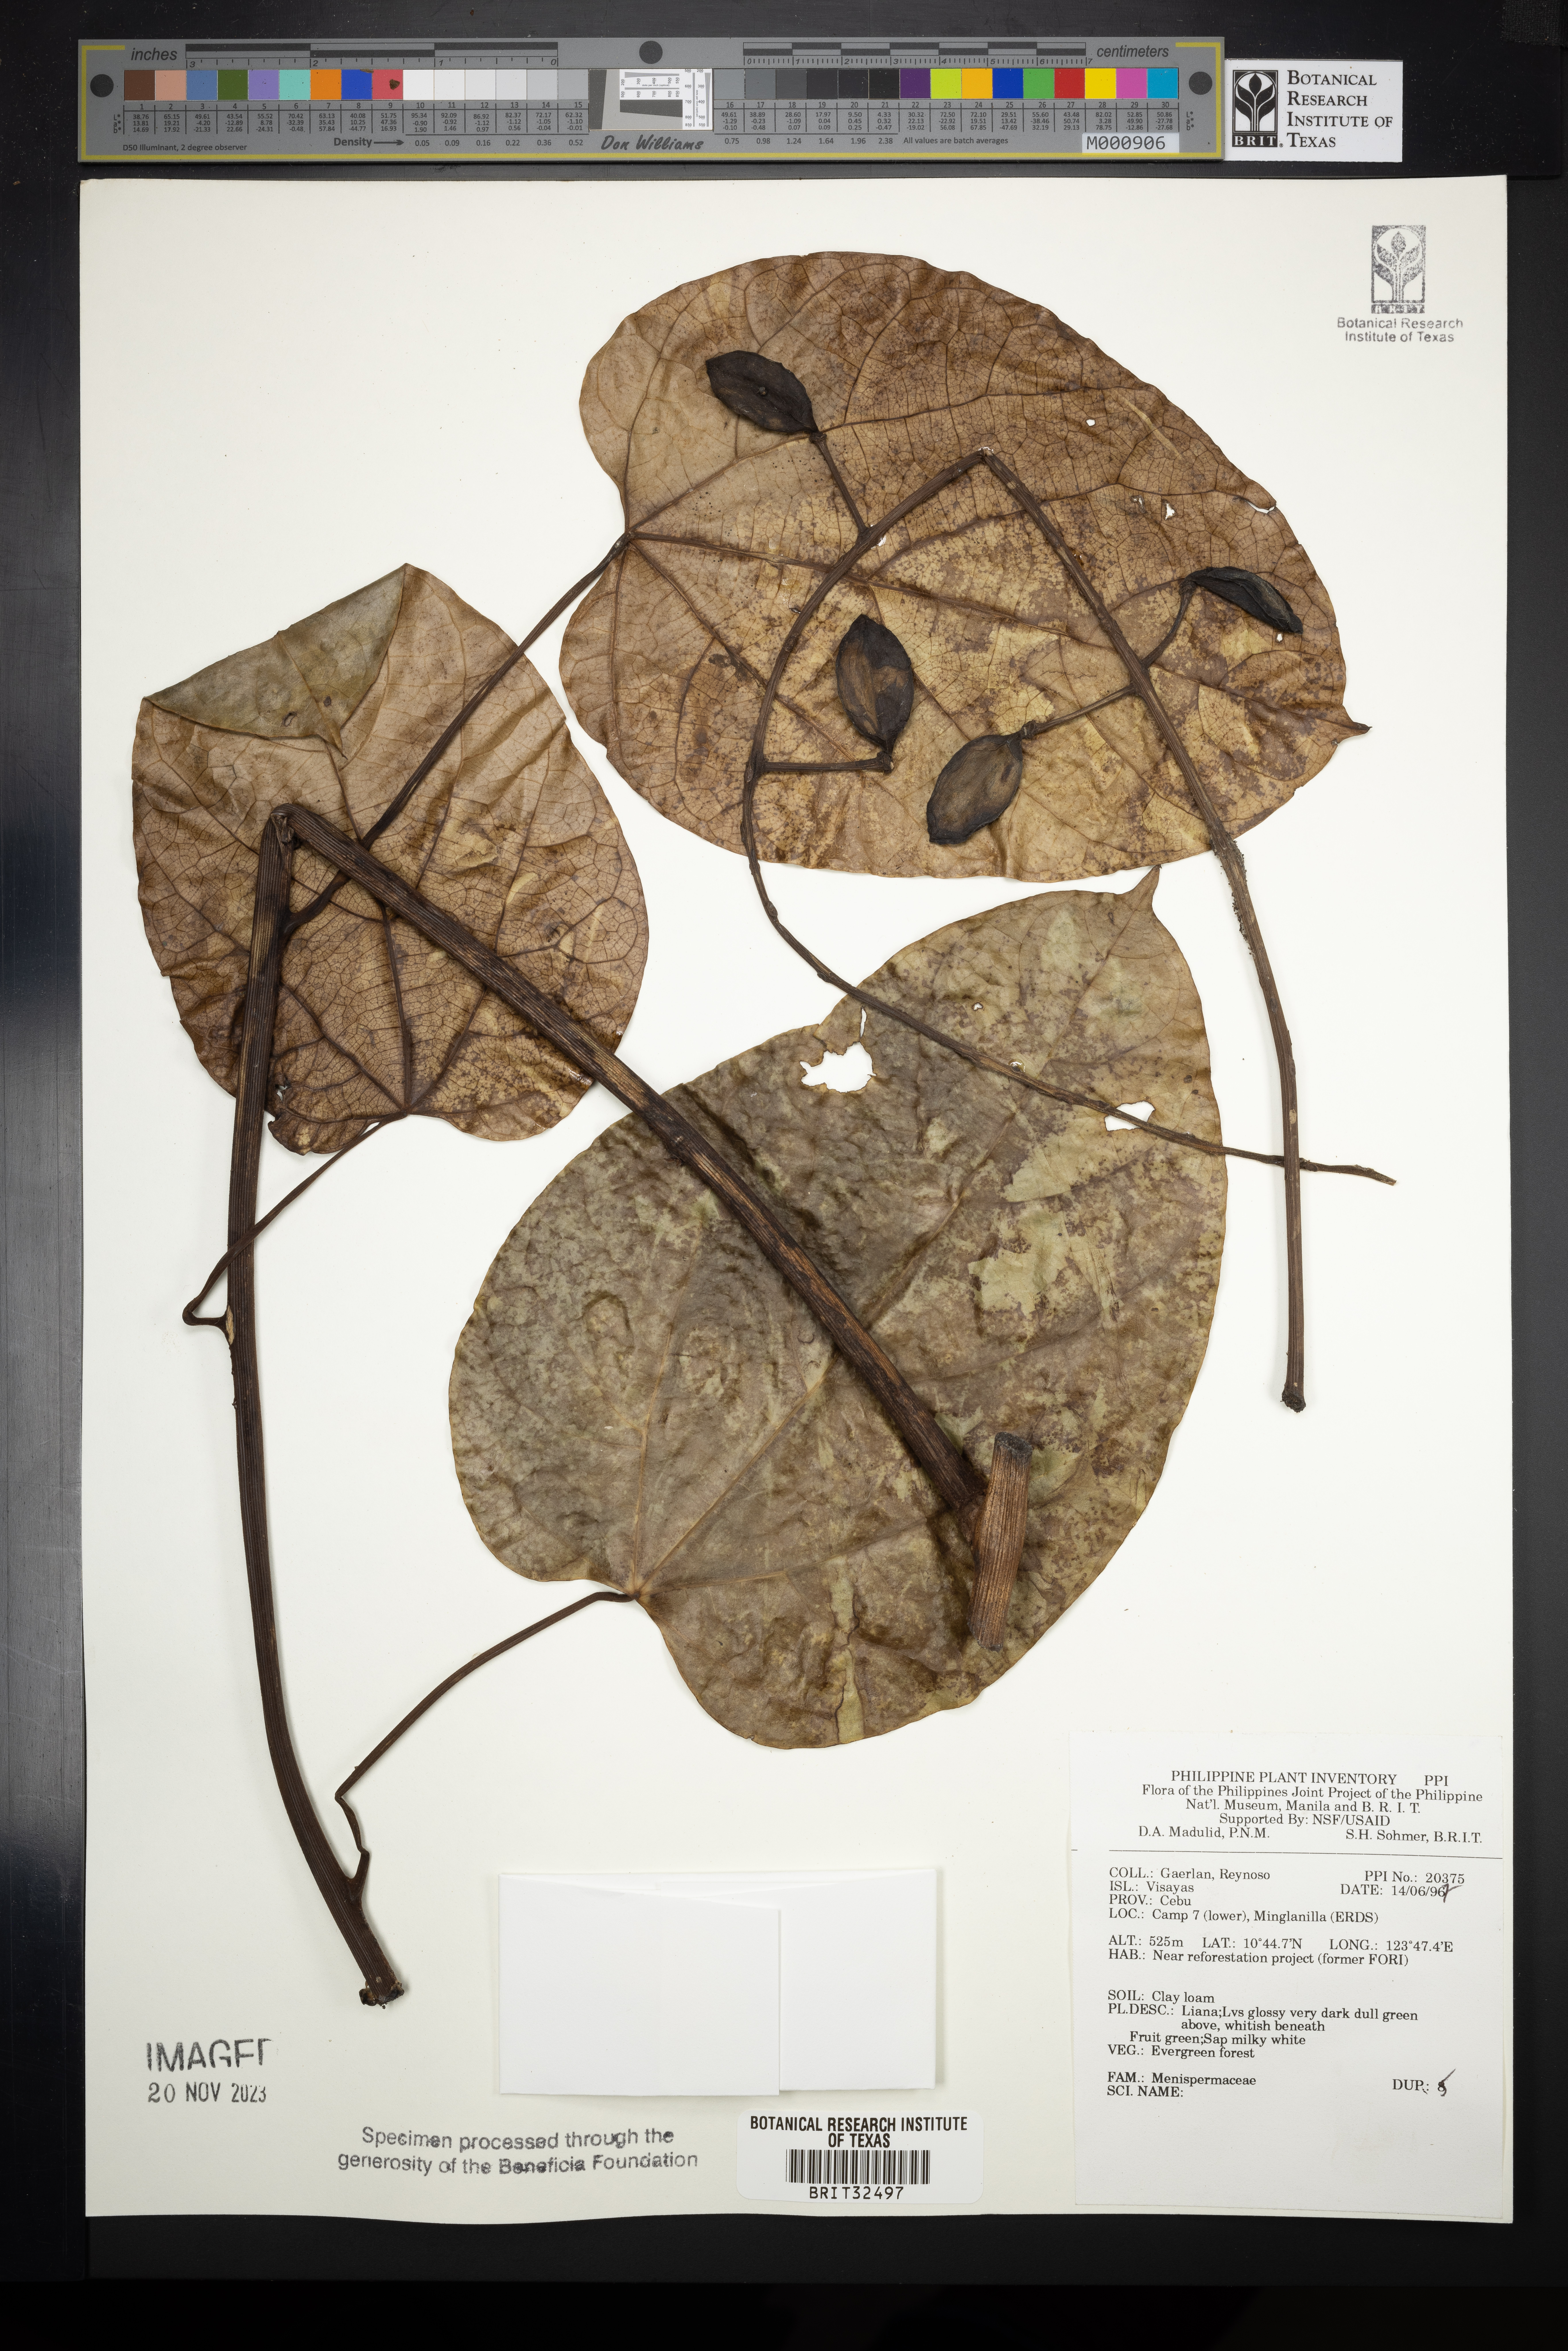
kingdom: Plantae
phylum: Tracheophyta
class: Magnoliopsida
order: Ranunculales
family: Menispermaceae
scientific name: Menispermaceae
